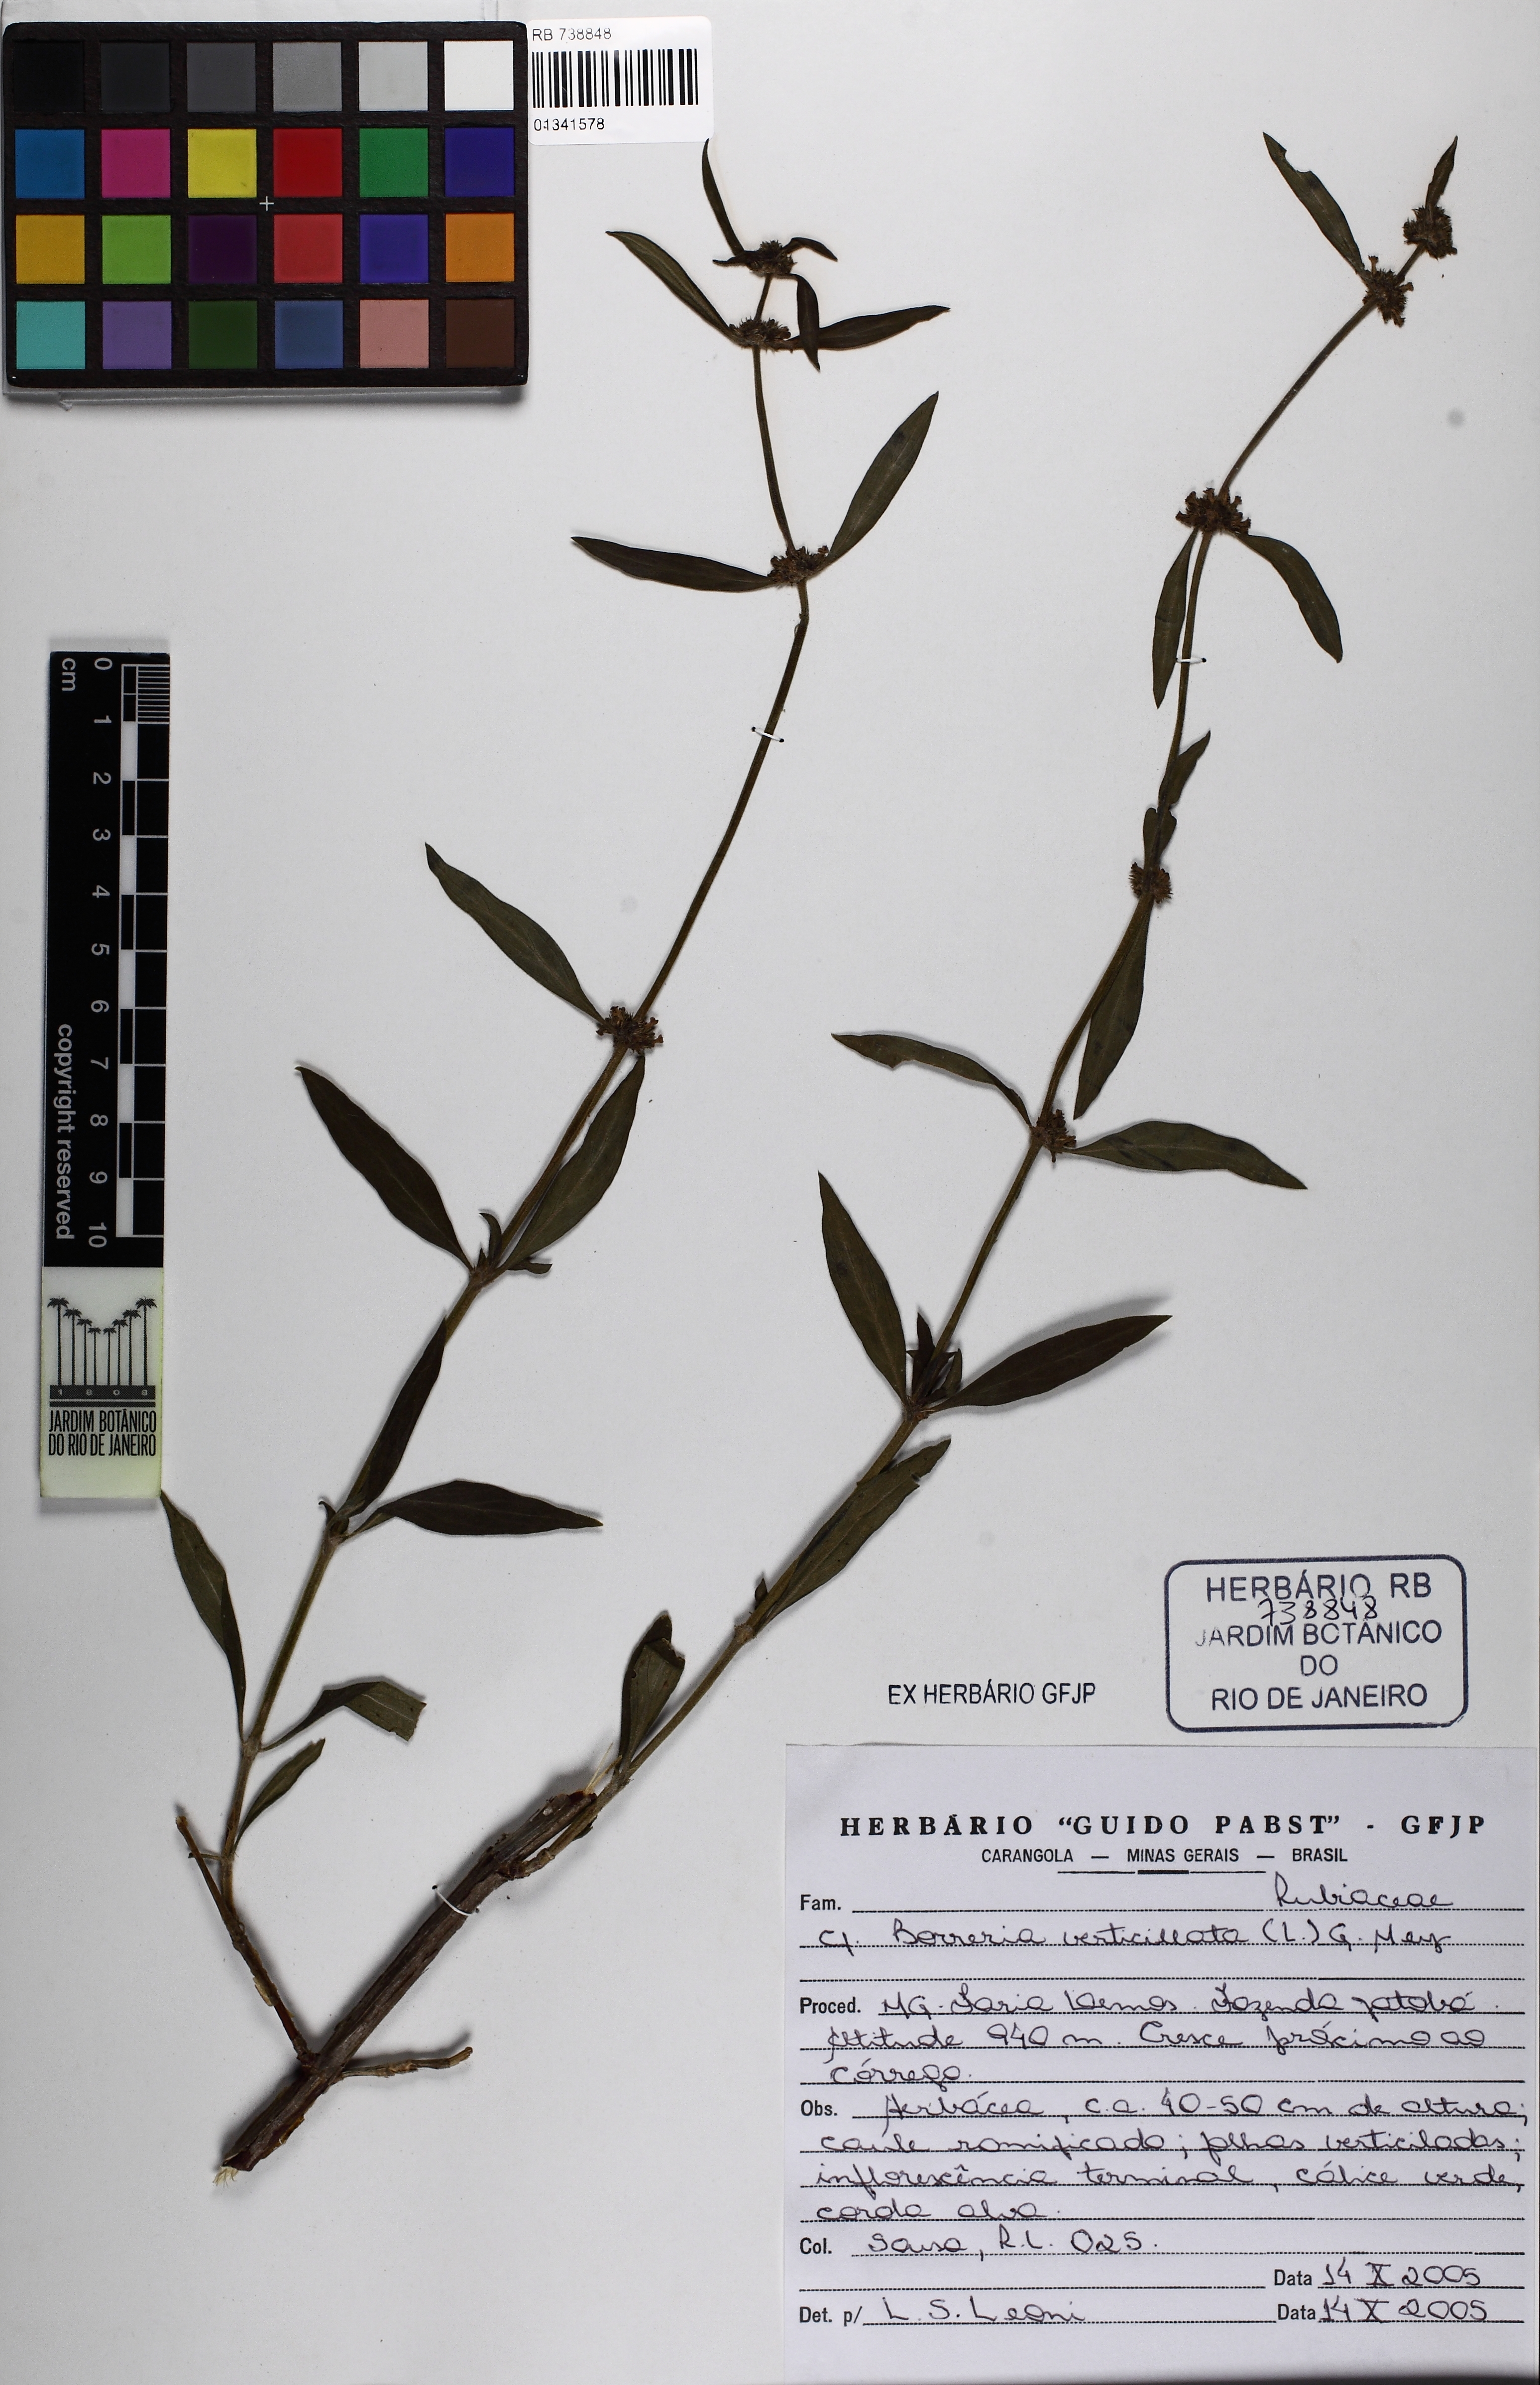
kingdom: Plantae
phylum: Tracheophyta
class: Magnoliopsida
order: Gentianales
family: Rubiaceae
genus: Spermacoce
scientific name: Spermacoce verticillata
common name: Shrubby false buttonweed
